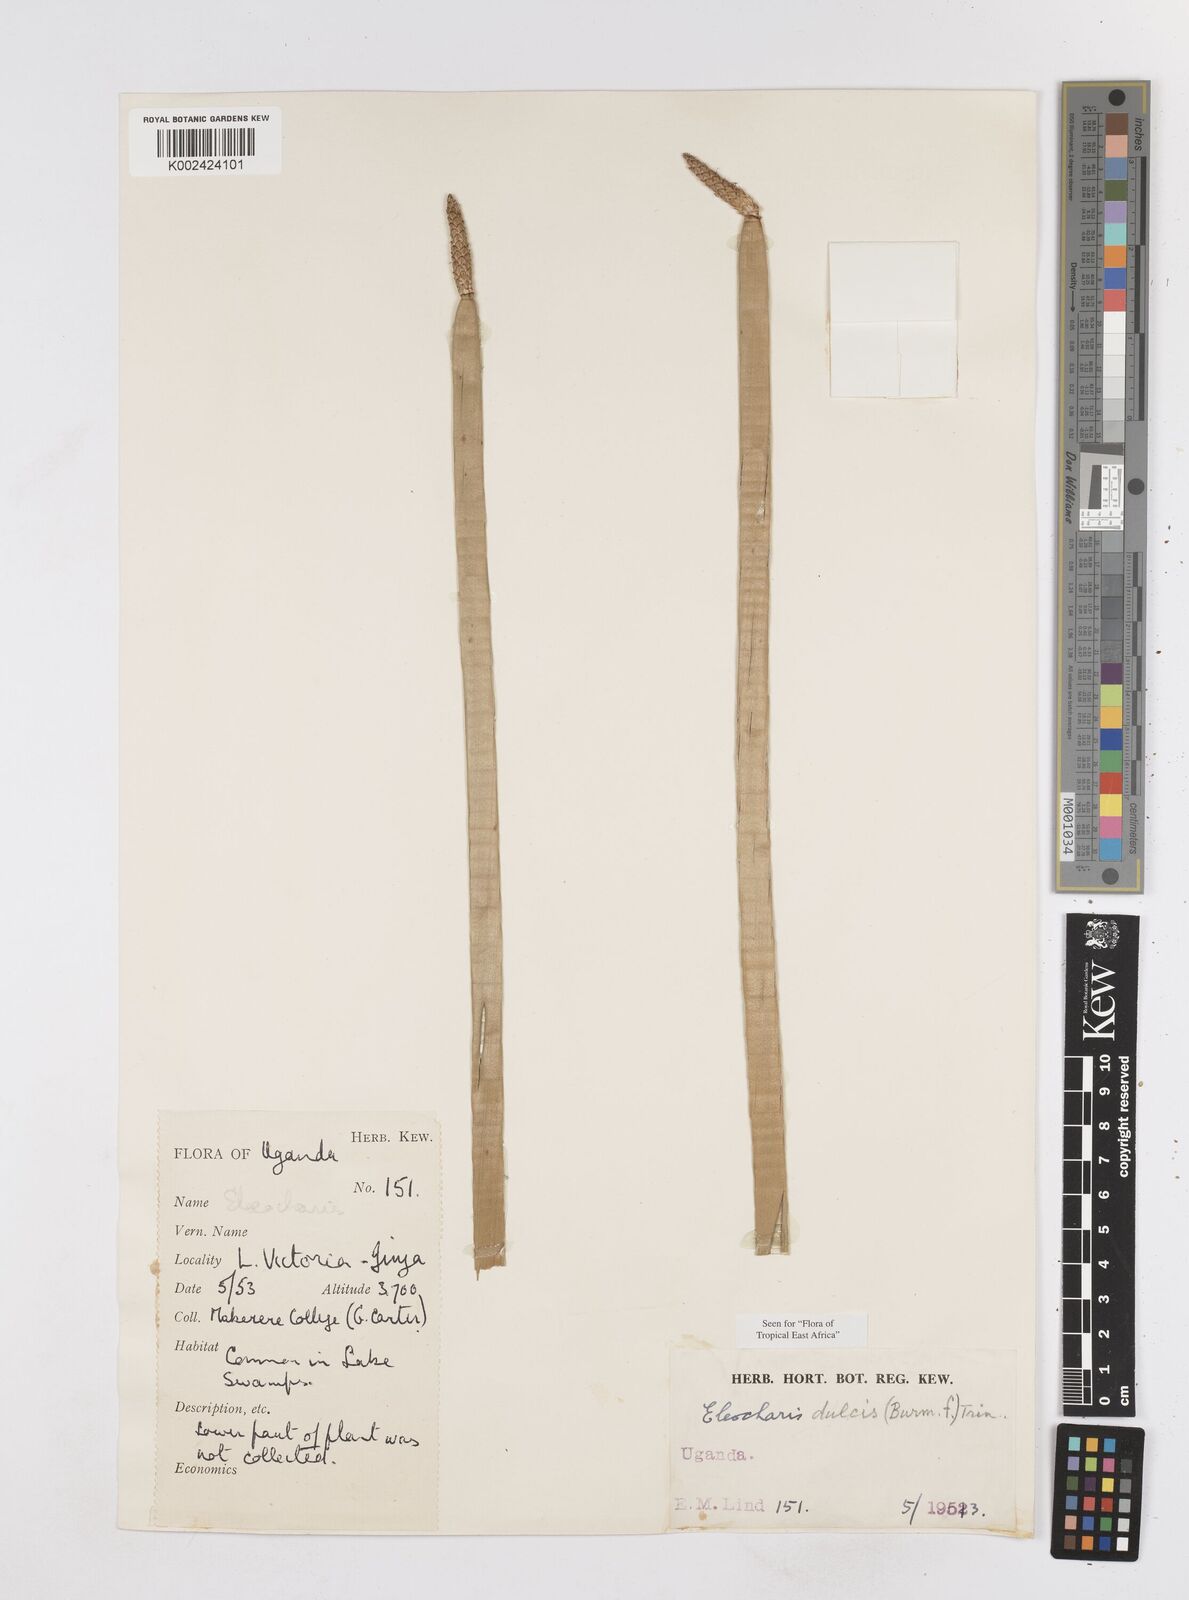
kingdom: Plantae
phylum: Tracheophyta
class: Liliopsida
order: Poales
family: Cyperaceae
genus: Eleocharis
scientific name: Eleocharis dulcis
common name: Chinese water chestnut
